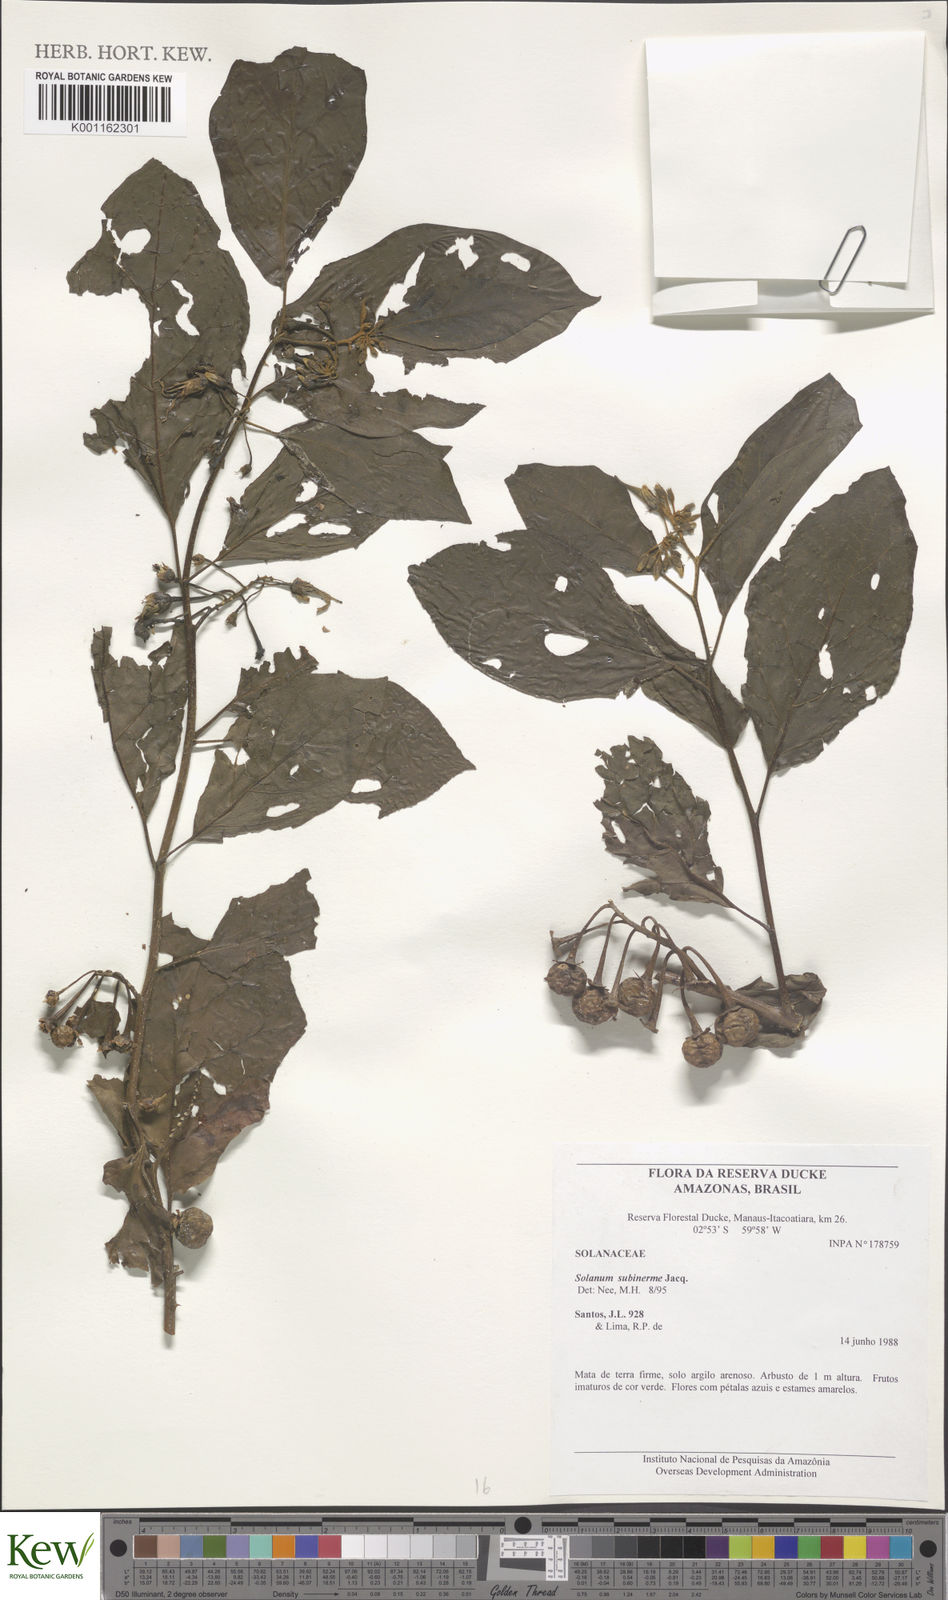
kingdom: Plantae
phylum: Tracheophyta
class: Magnoliopsida
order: Solanales
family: Solanaceae
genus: Solanum
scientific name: Solanum subinerme
